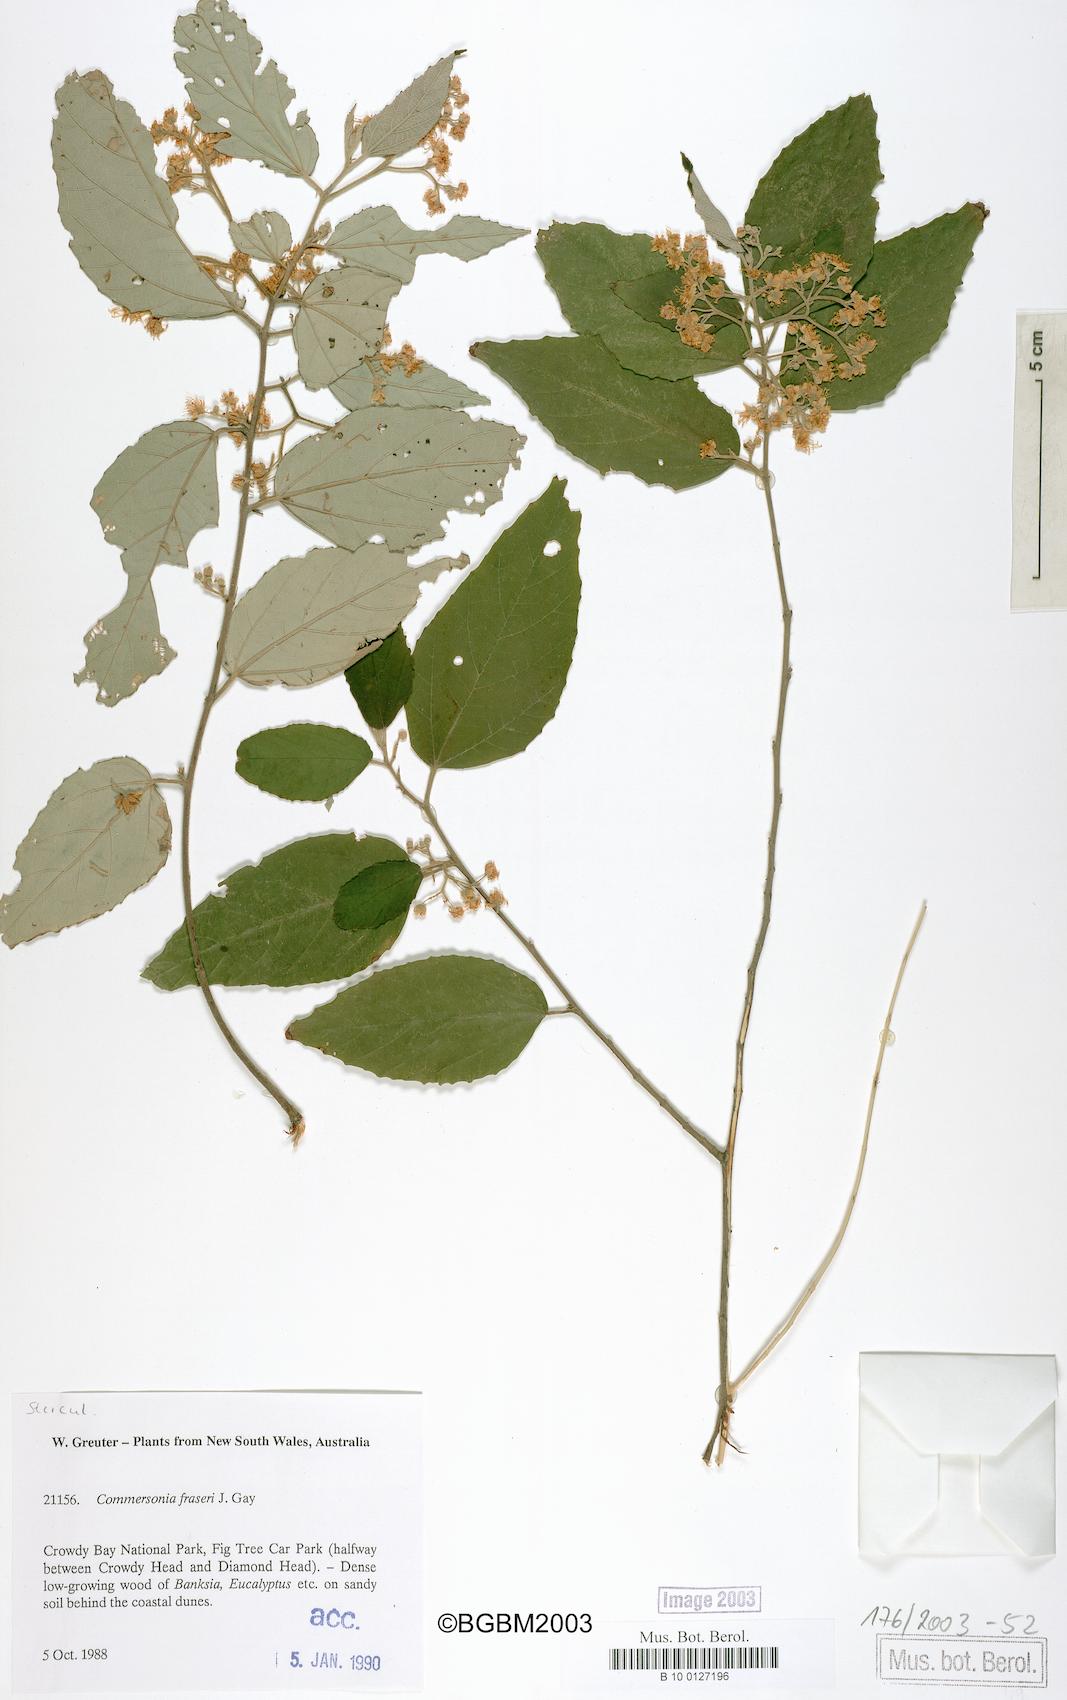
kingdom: Plantae
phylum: Tracheophyta
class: Magnoliopsida
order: Malvales
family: Malvaceae
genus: Androcalva
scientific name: Androcalva fraseri
